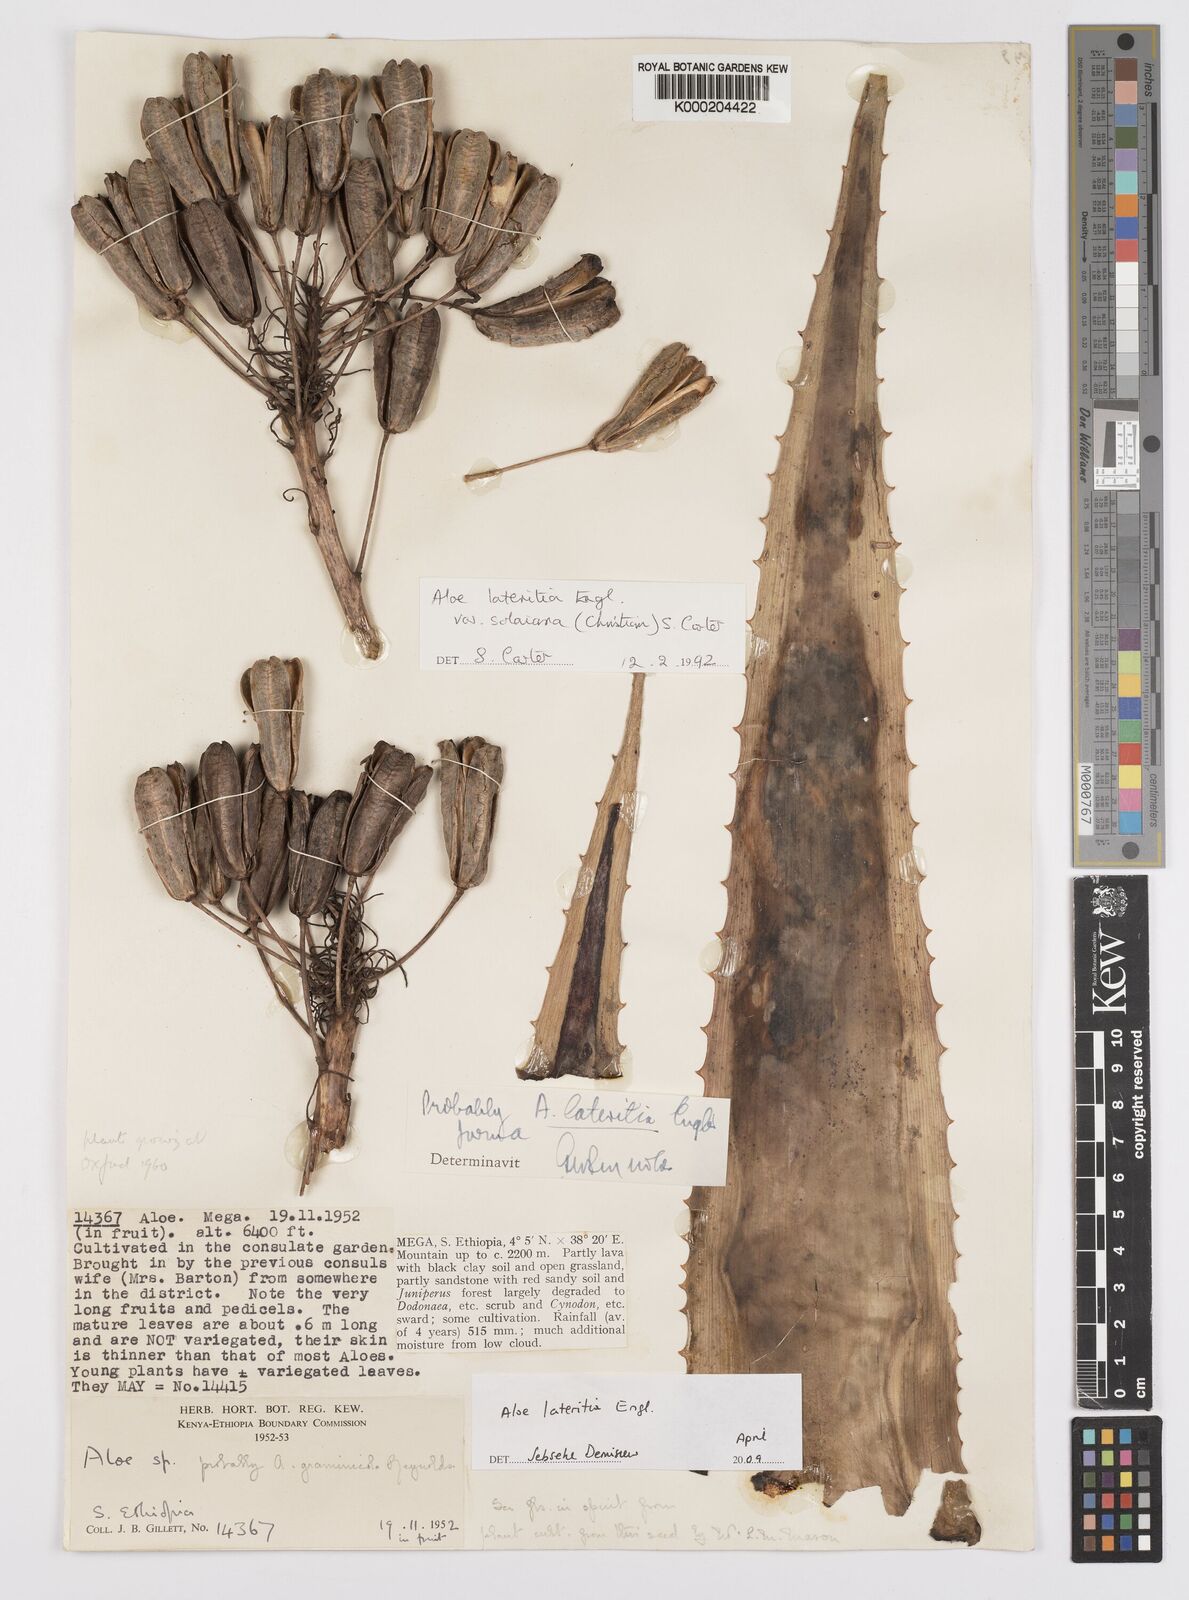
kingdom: Plantae
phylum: Tracheophyta
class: Liliopsida
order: Asparagales
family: Asphodelaceae
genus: Aloe
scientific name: Aloe lateritia
